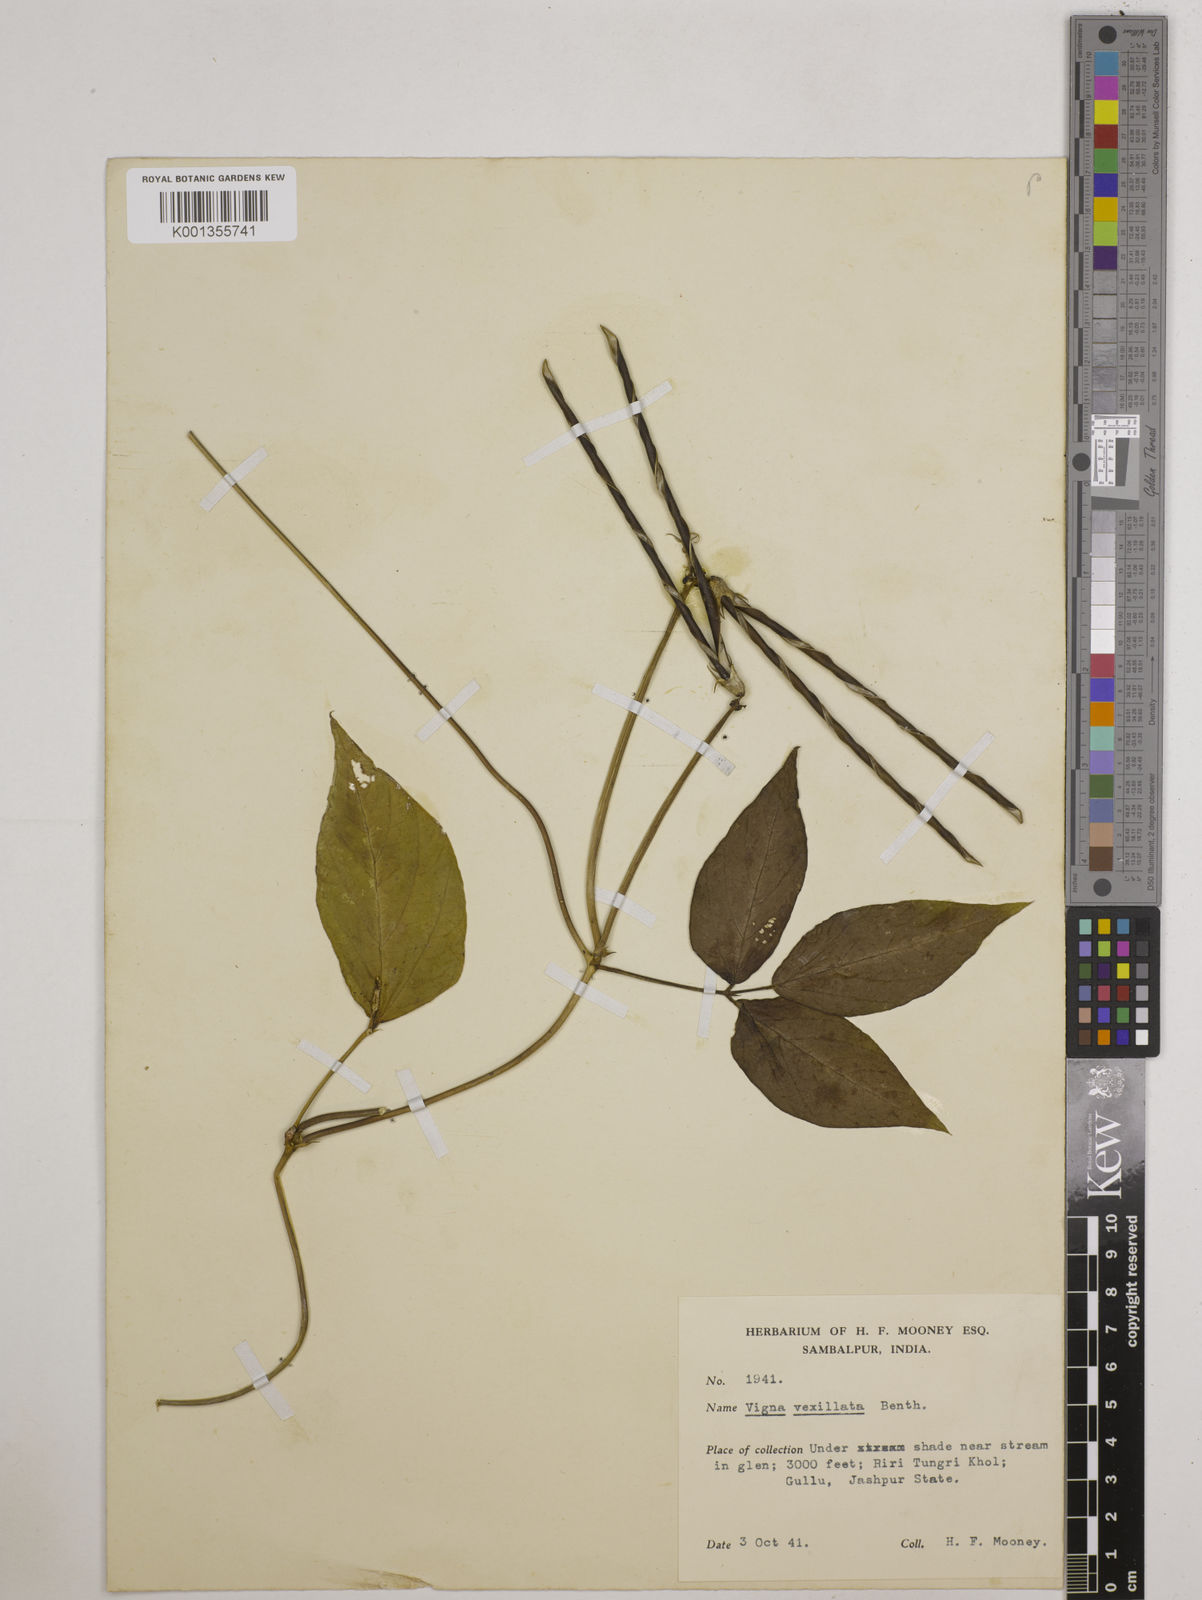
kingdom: Plantae
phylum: Tracheophyta
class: Magnoliopsida
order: Fabales
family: Fabaceae
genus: Vigna
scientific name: Vigna vexillata
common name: Zombi pea
